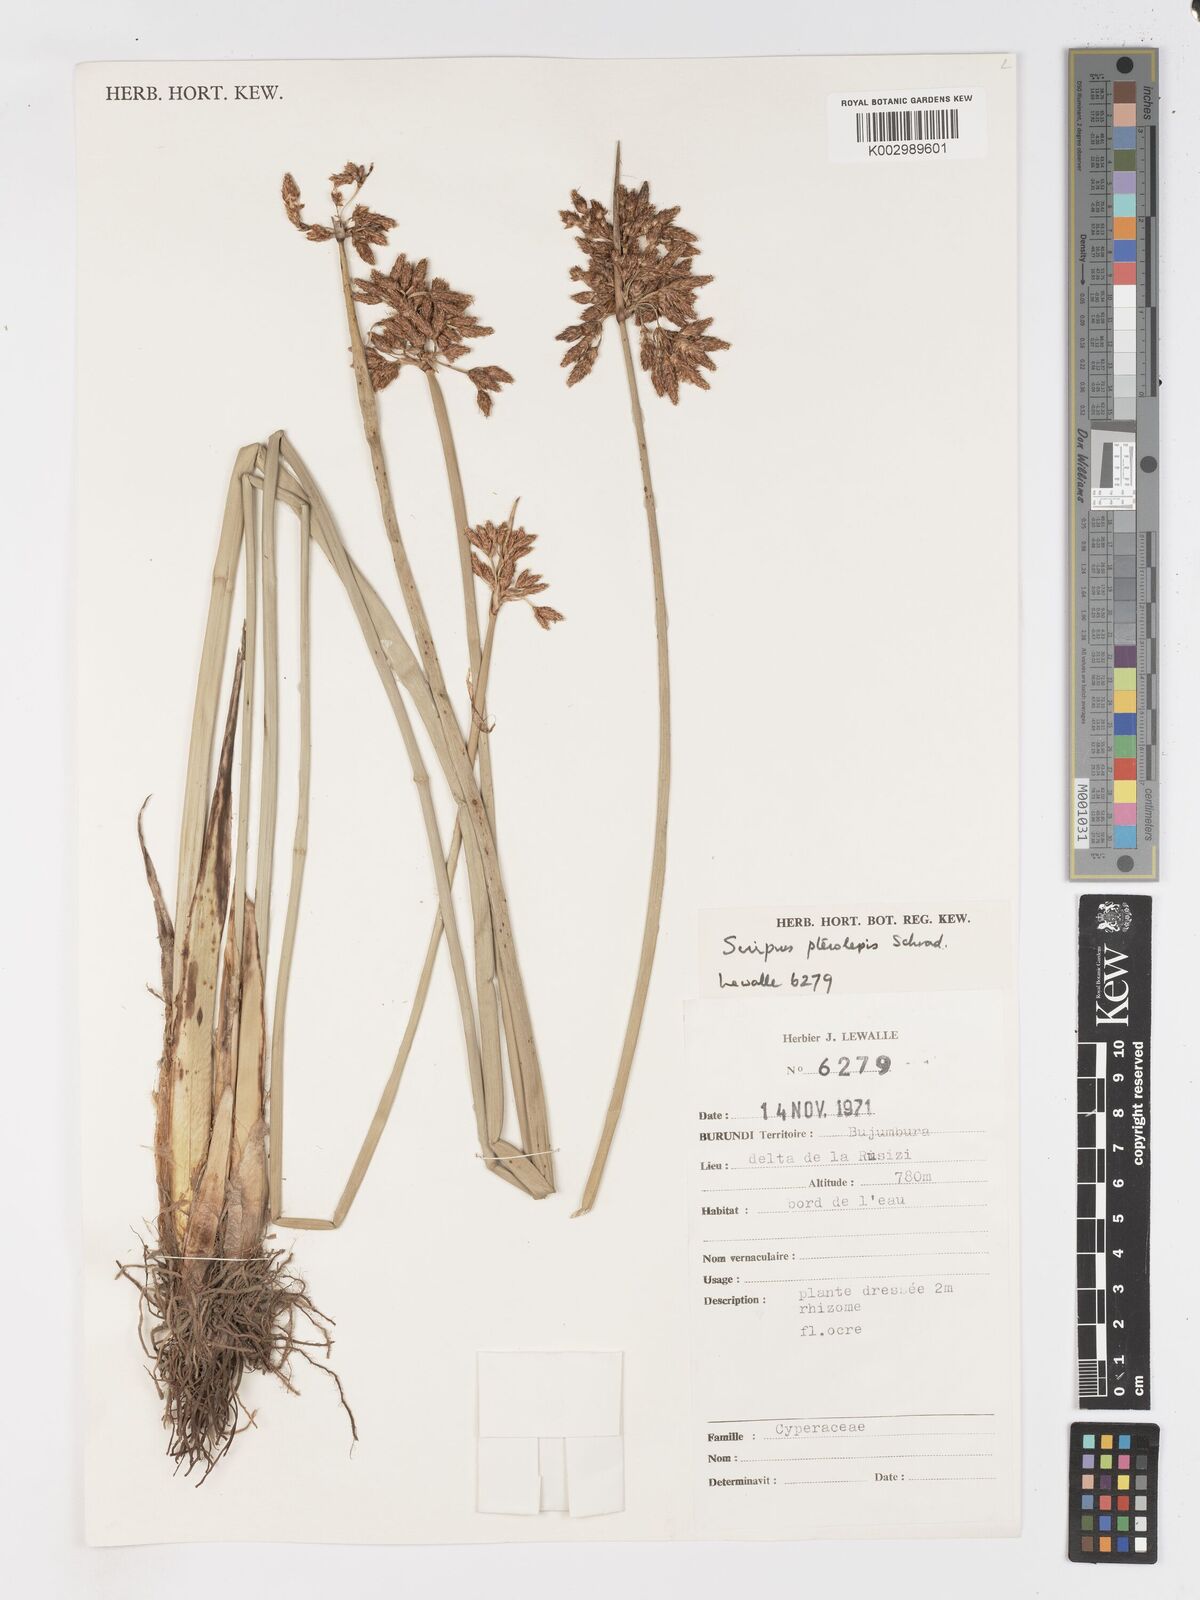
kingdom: Plantae
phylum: Tracheophyta
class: Liliopsida
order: Poales
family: Cyperaceae
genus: Schoenoplectus
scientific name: Schoenoplectus
